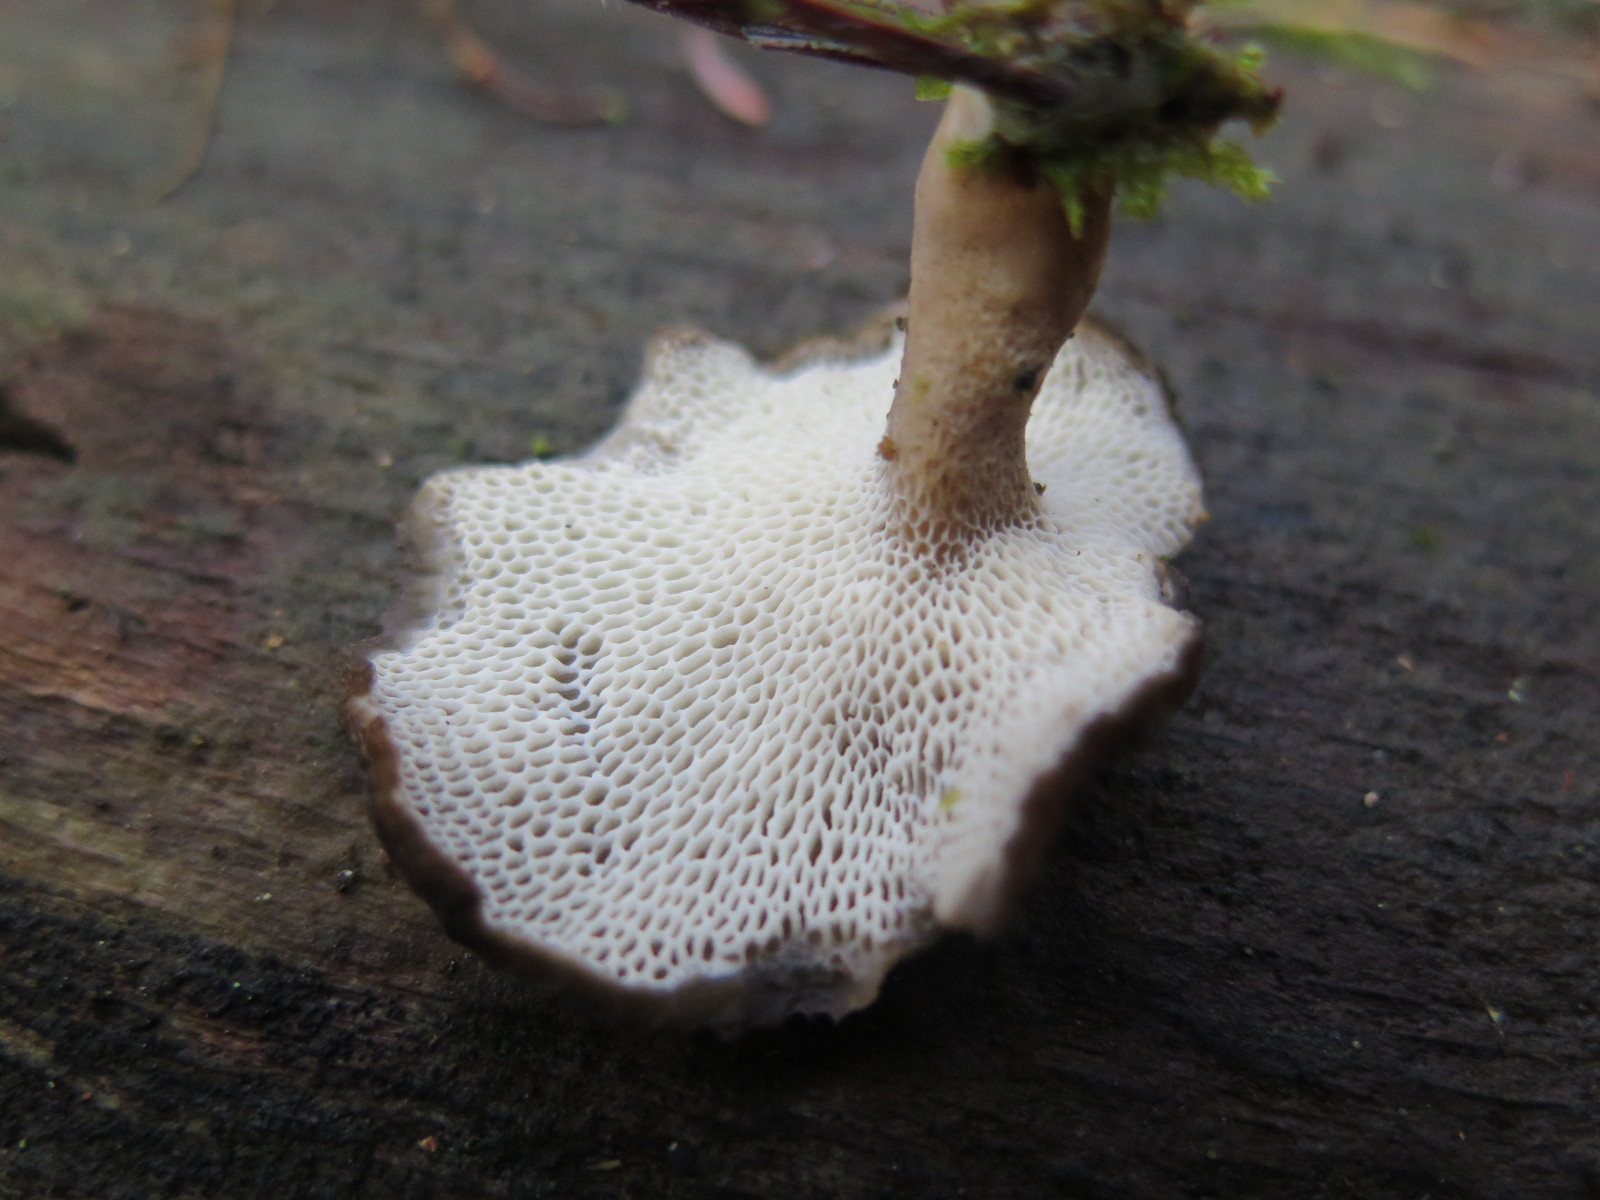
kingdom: Fungi
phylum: Basidiomycota
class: Agaricomycetes
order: Polyporales
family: Polyporaceae
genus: Lentinus
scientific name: Lentinus brumalis
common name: vinter-stilkporesvamp
